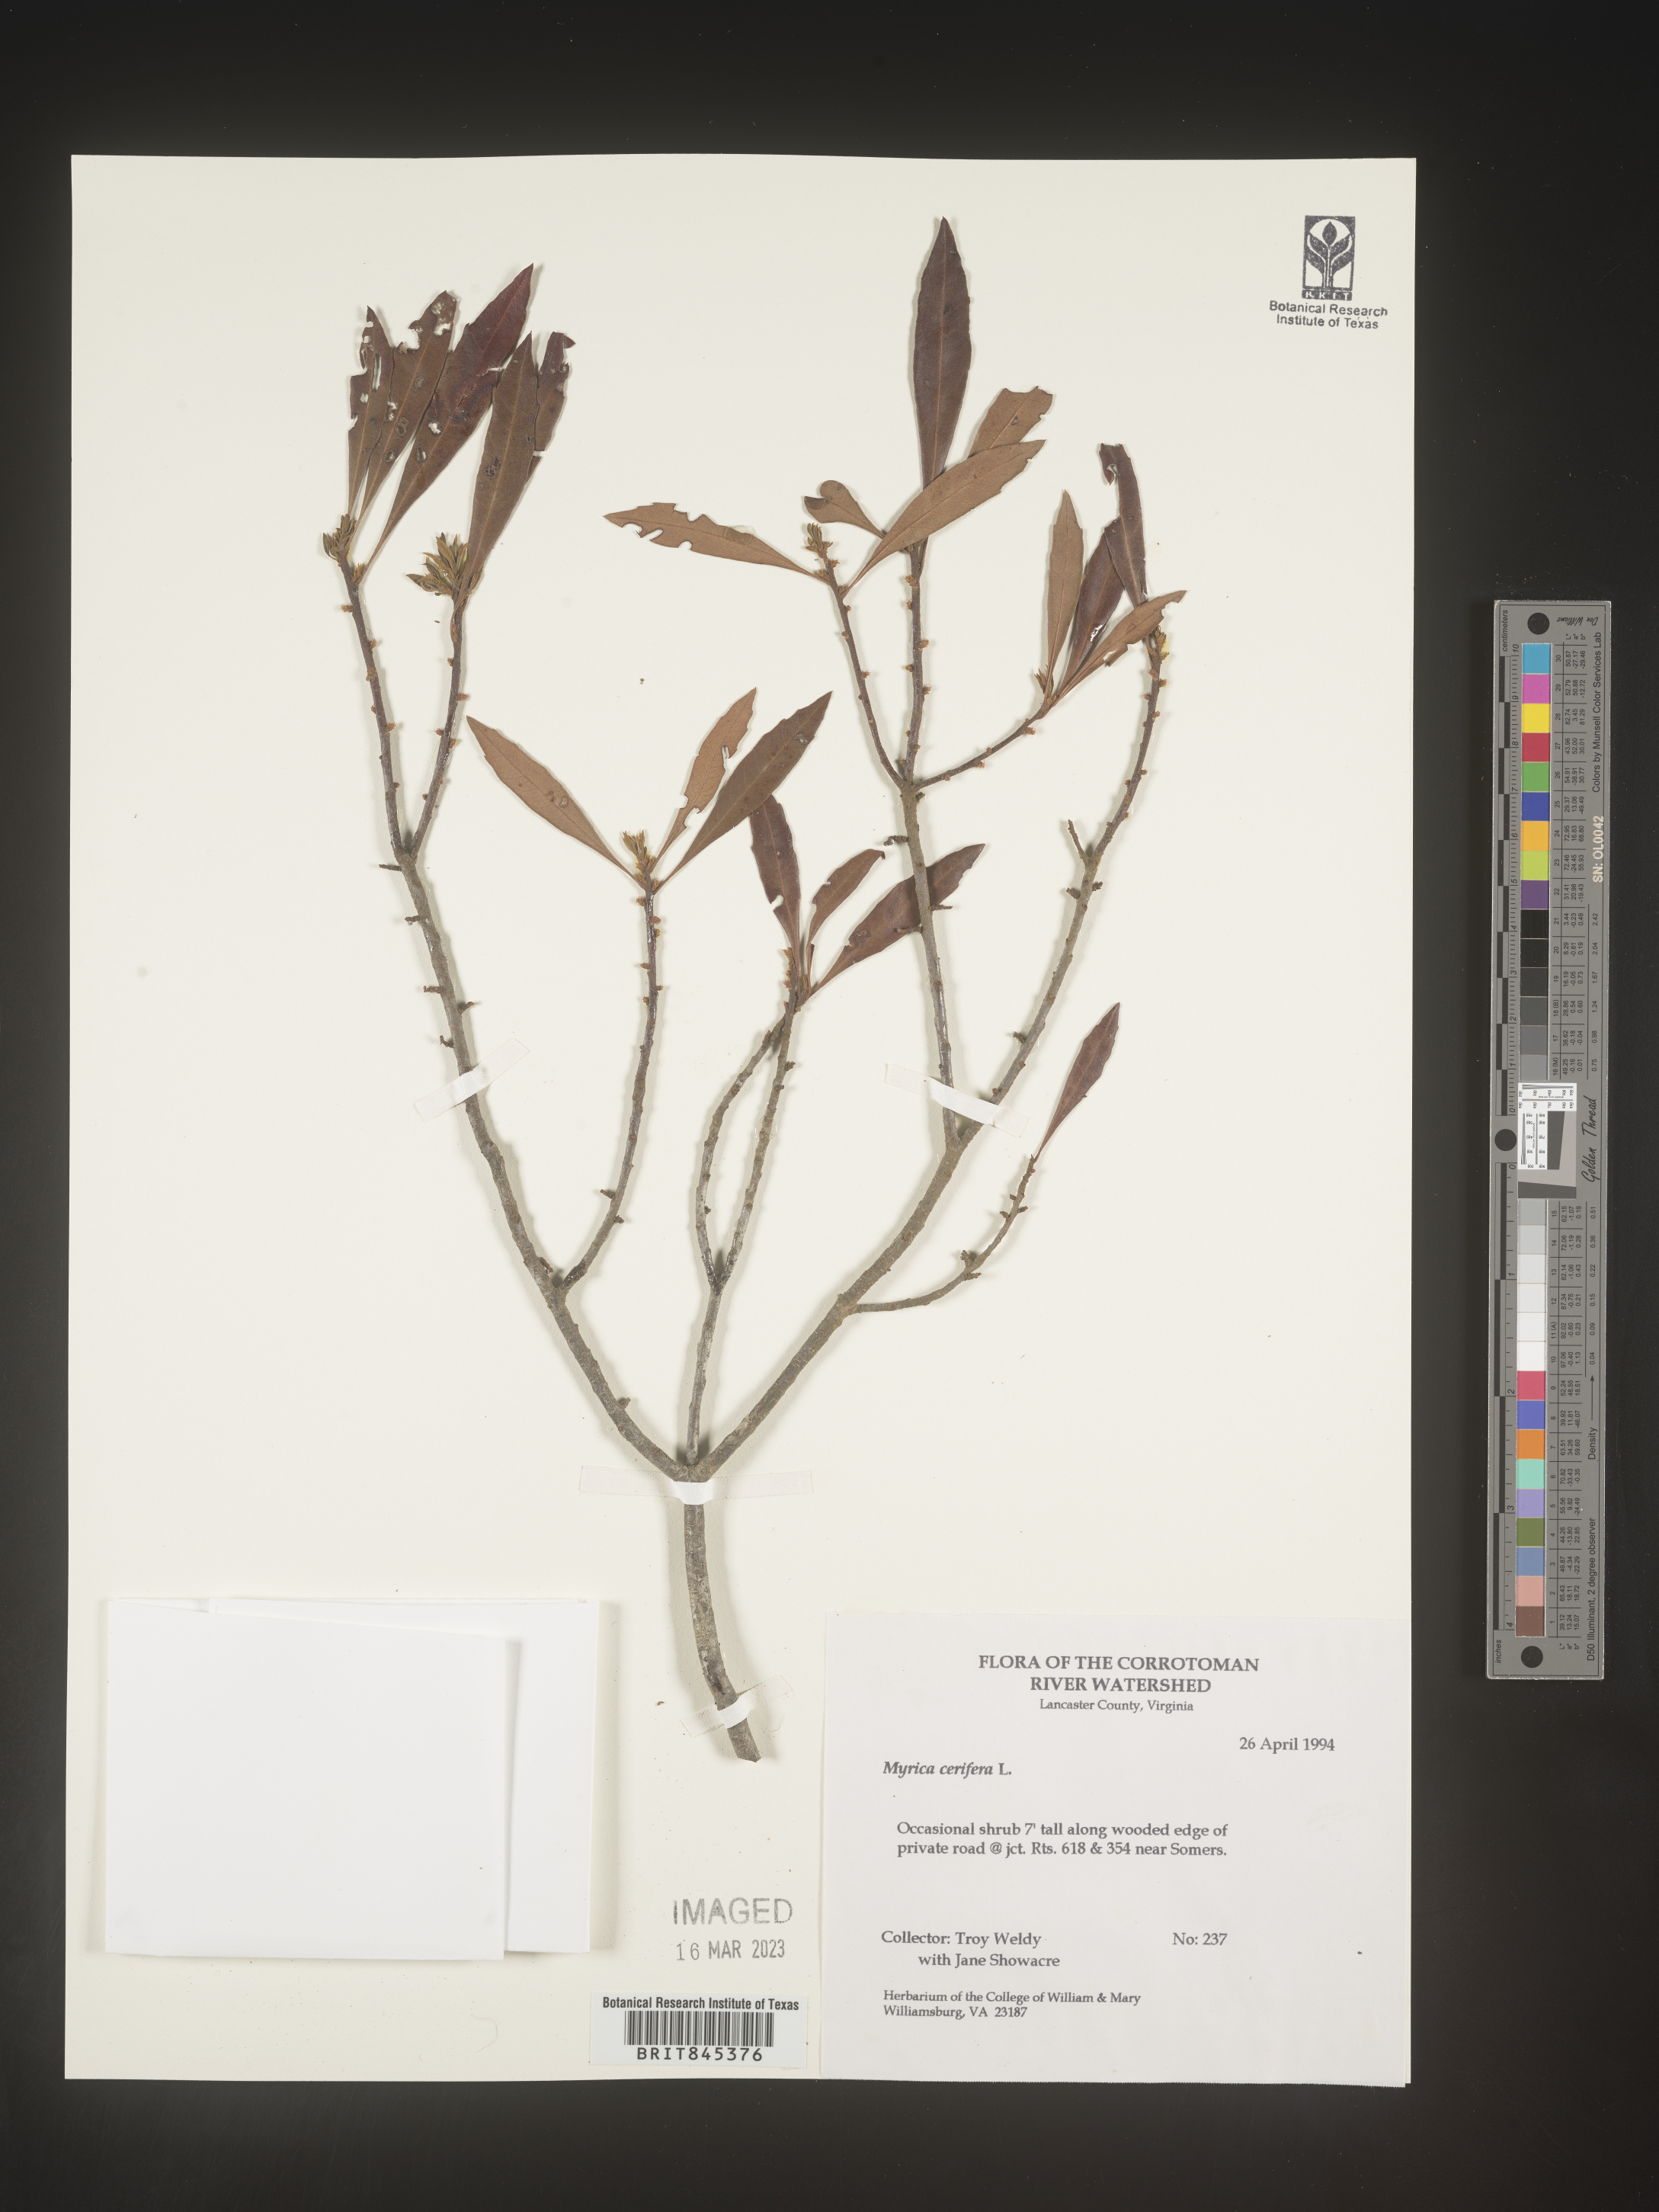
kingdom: Plantae
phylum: Tracheophyta
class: Magnoliopsida
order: Fagales
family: Myricaceae
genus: Morella
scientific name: Morella cerifera
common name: Wax myrtle
